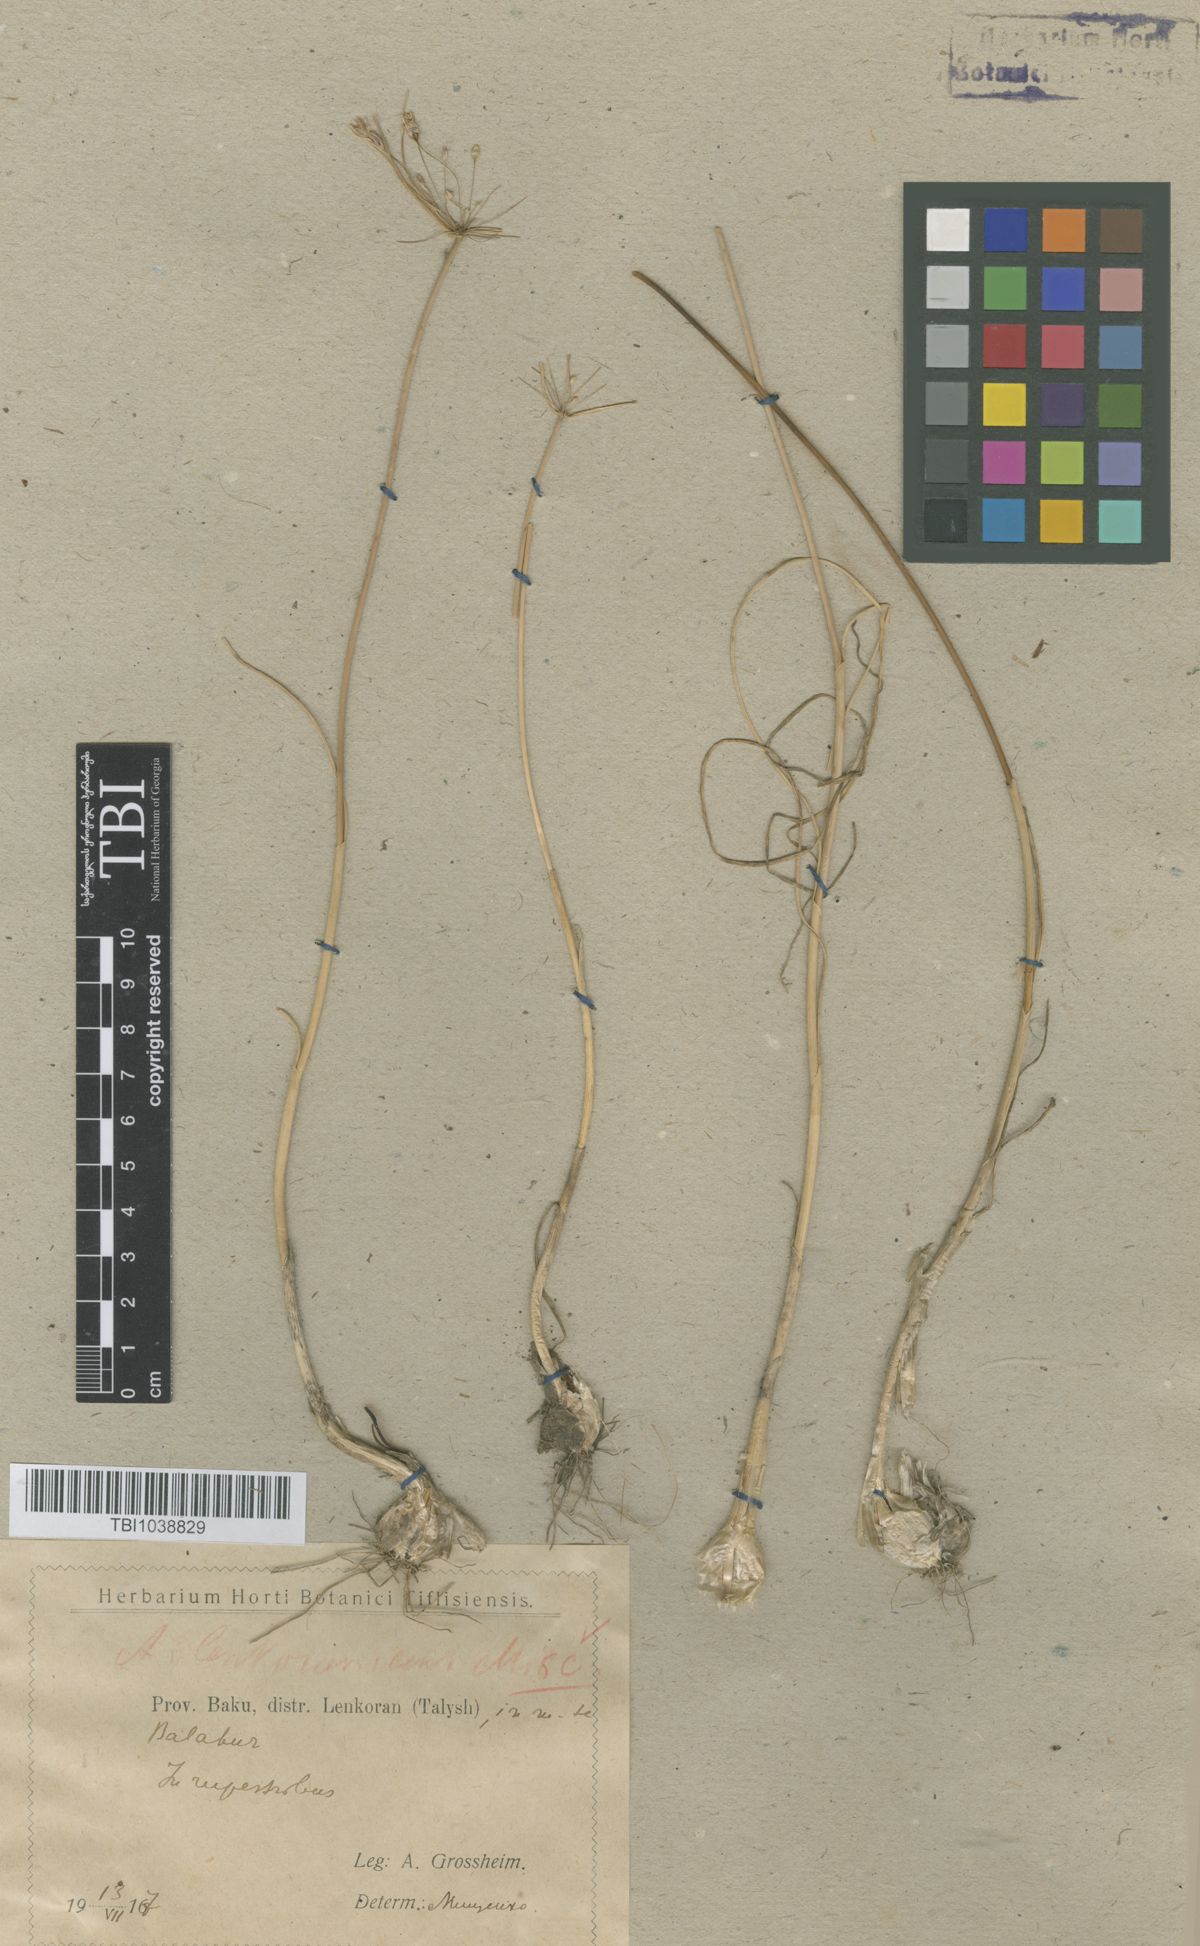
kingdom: Plantae
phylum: Tracheophyta
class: Liliopsida
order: Asparagales
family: Amaryllidaceae
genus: Allium
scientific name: Allium lenkoranicum
